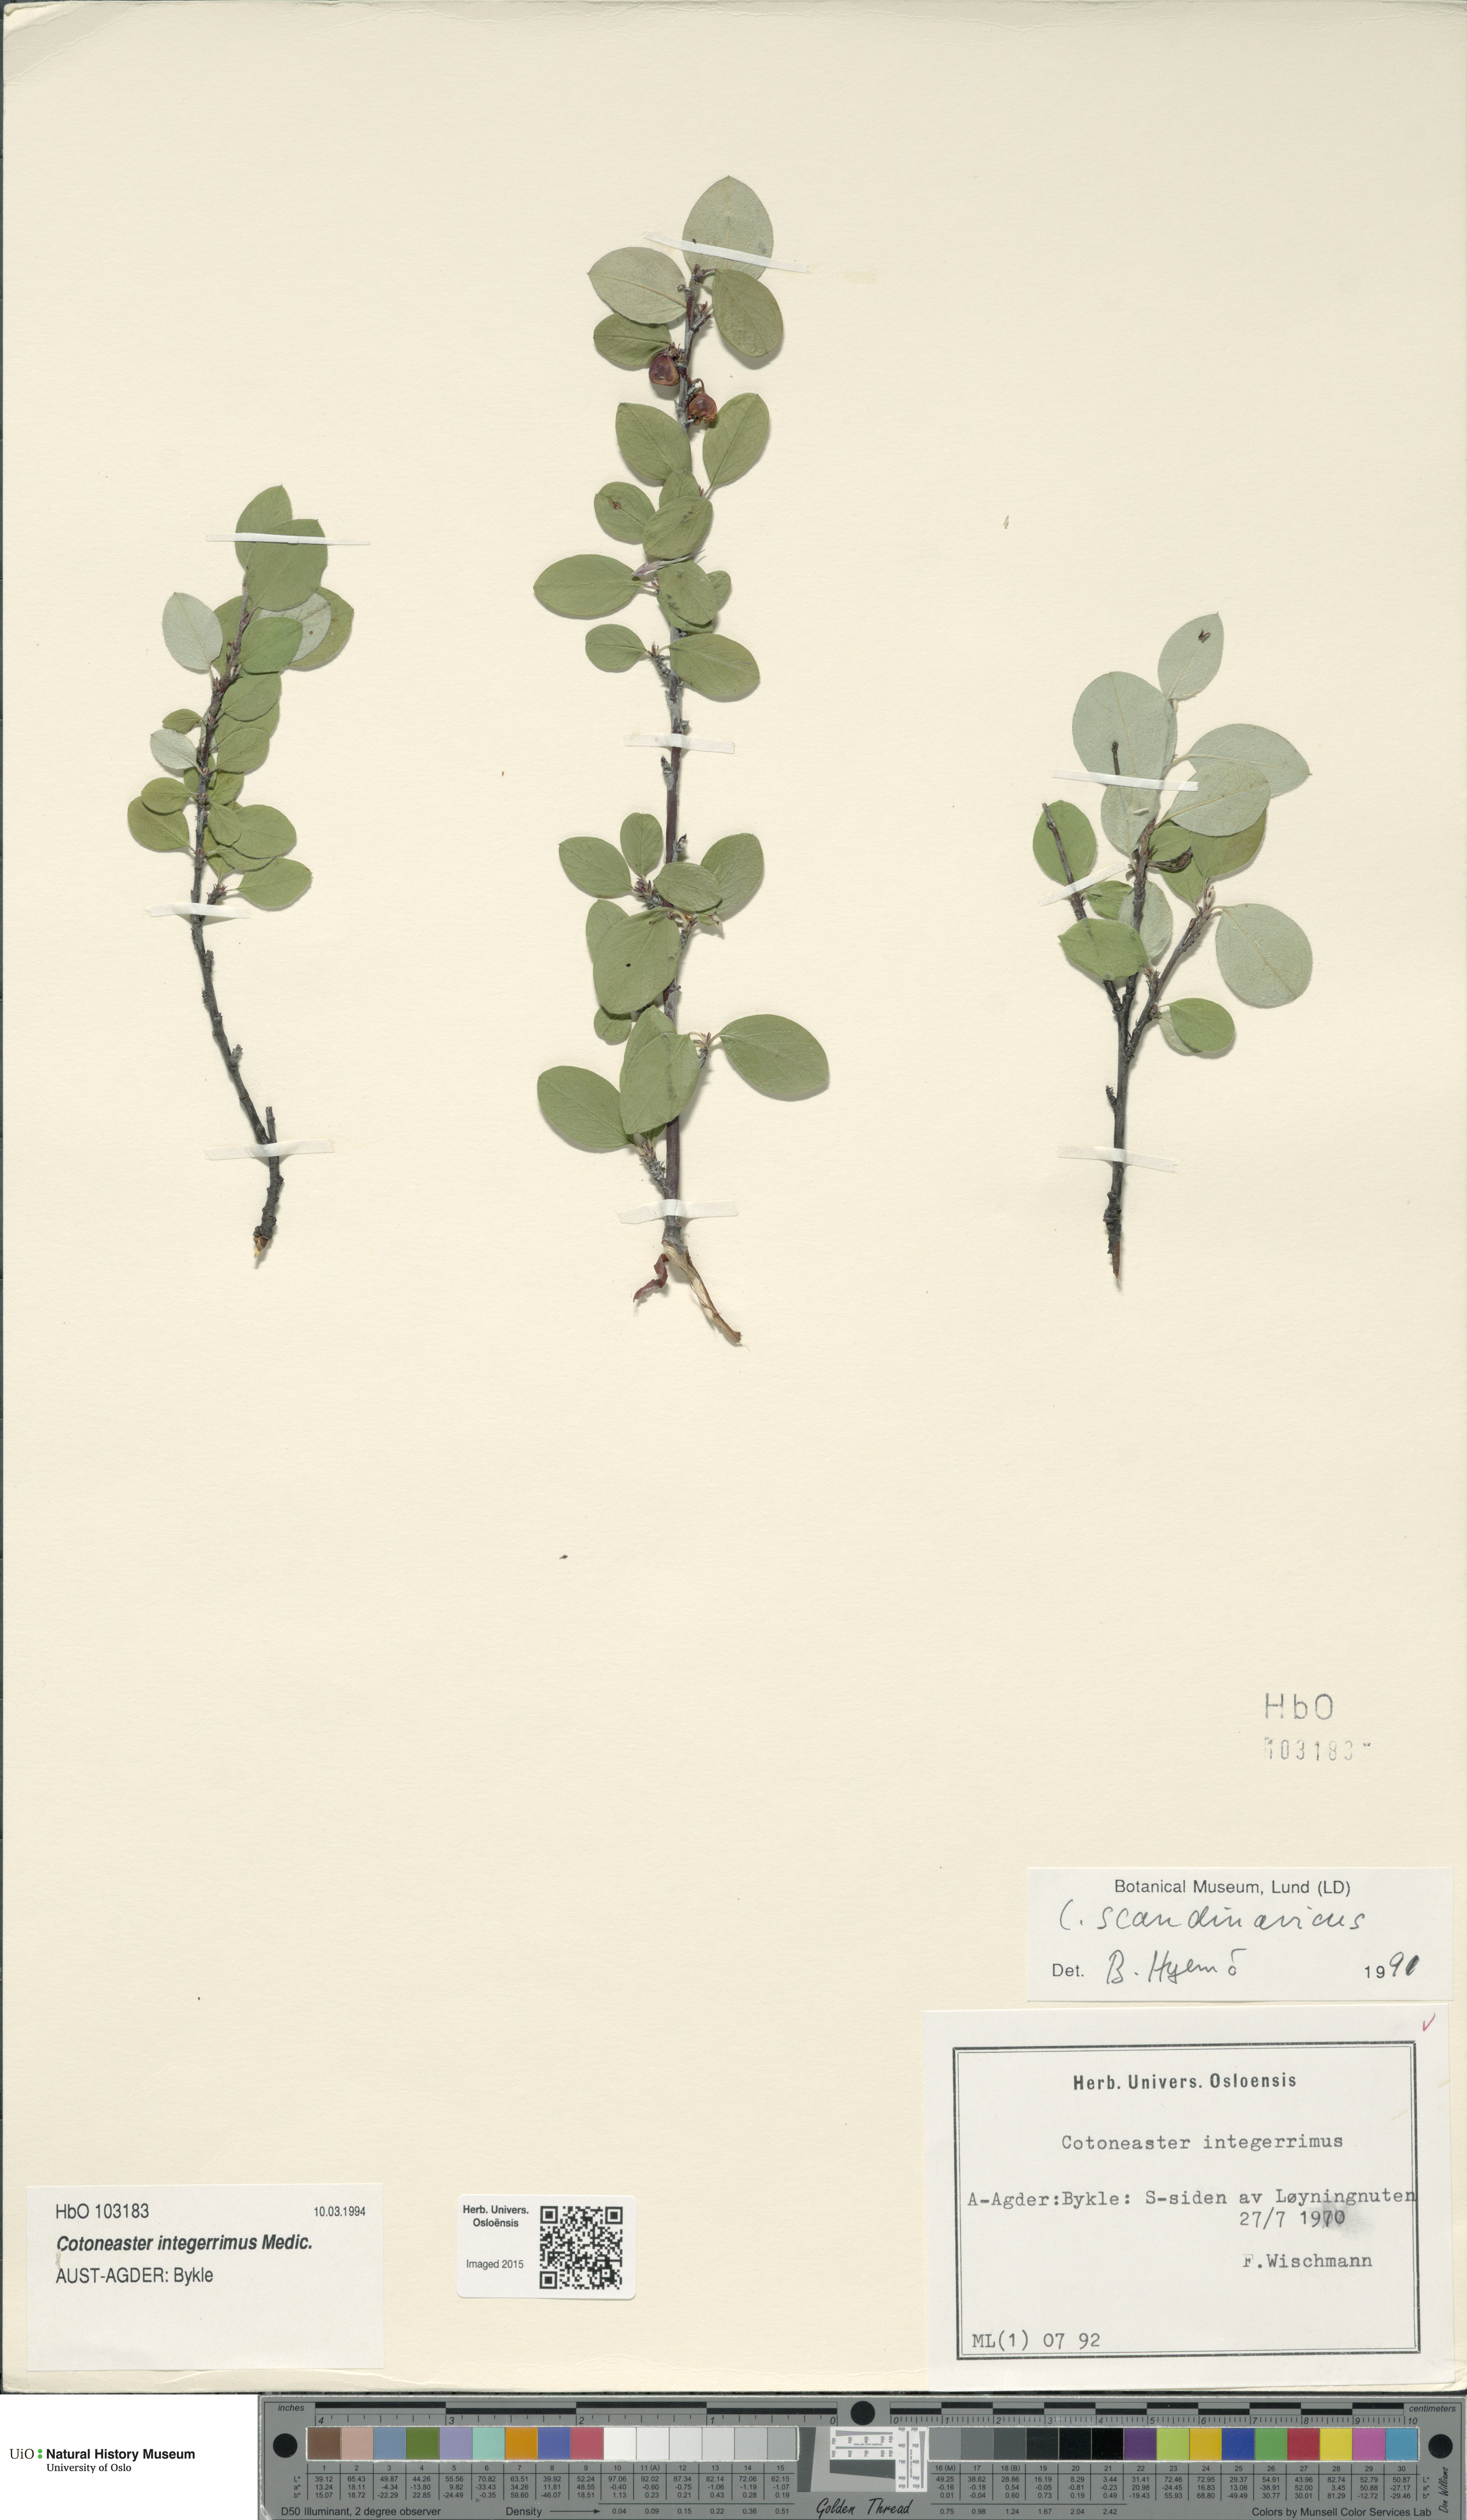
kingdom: Plantae
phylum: Tracheophyta
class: Magnoliopsida
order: Rosales
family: Rosaceae
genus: Cotoneaster
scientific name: Cotoneaster integerrimus
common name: Wild cotoneaster
